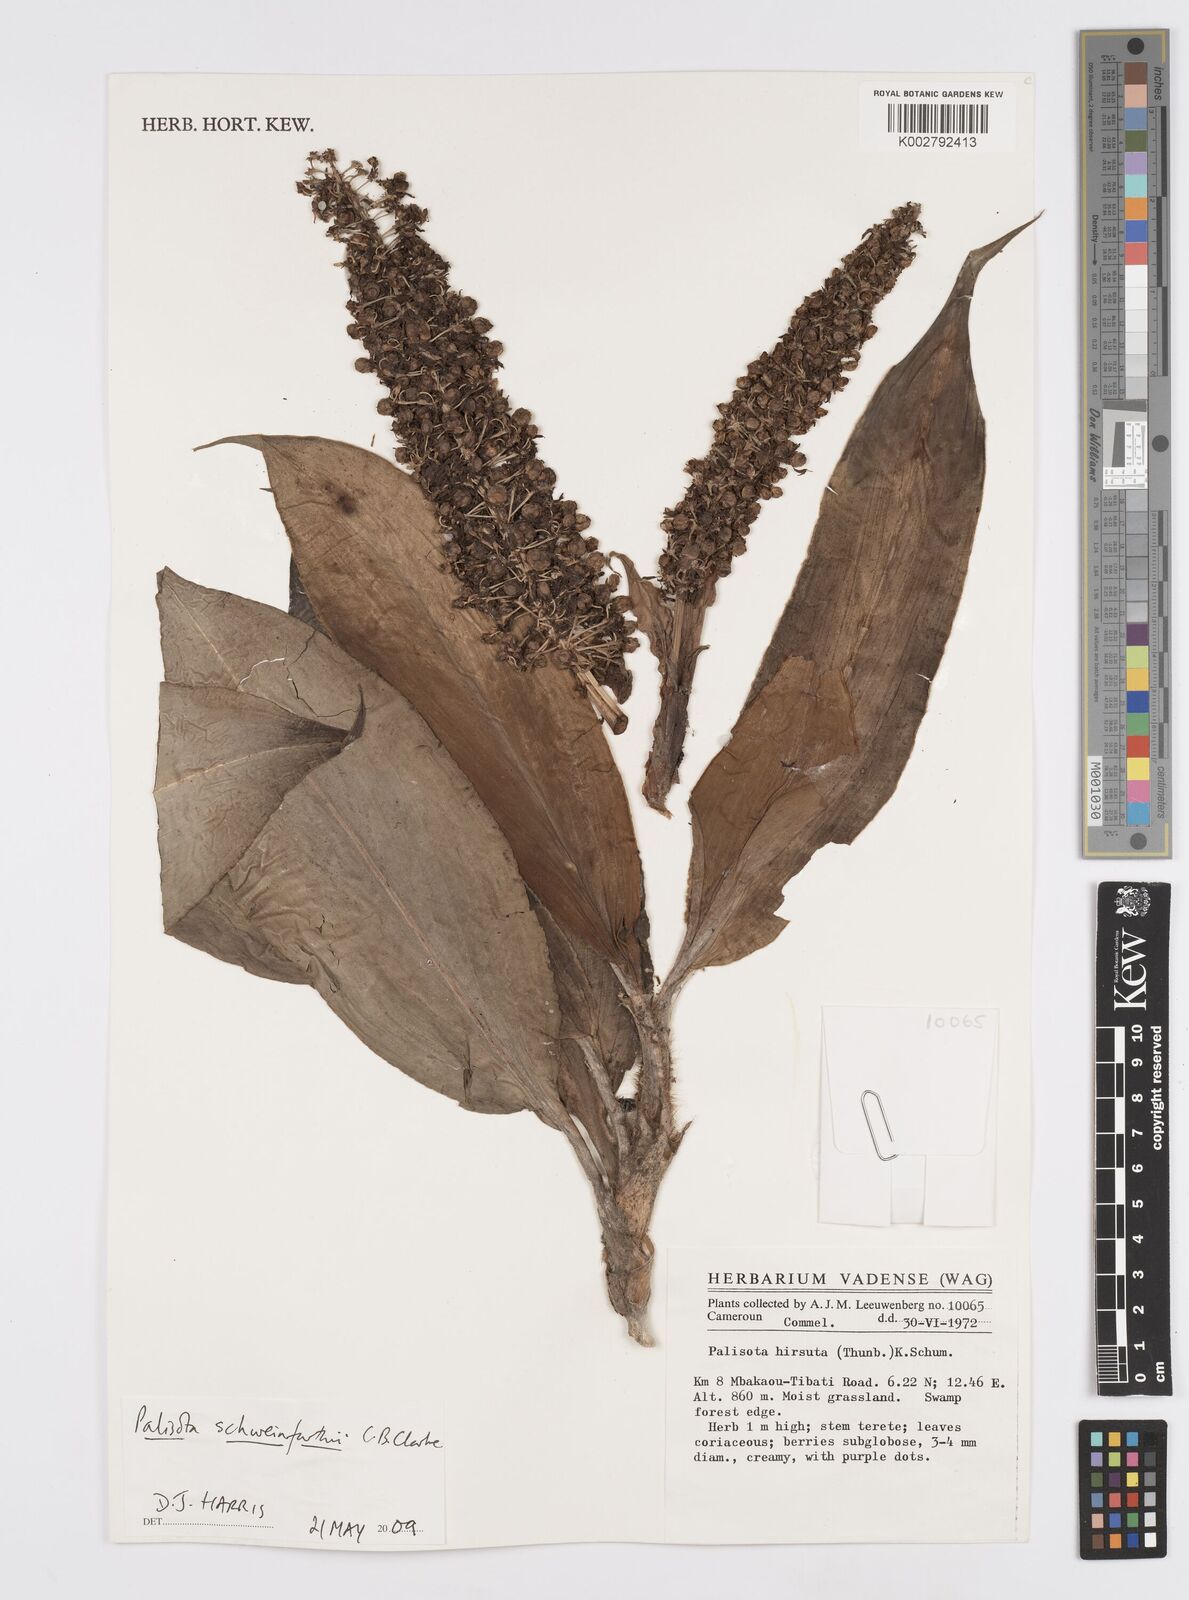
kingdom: Plantae
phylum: Tracheophyta
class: Liliopsida
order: Commelinales
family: Commelinaceae
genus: Palisota
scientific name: Palisota schweinfurthii
